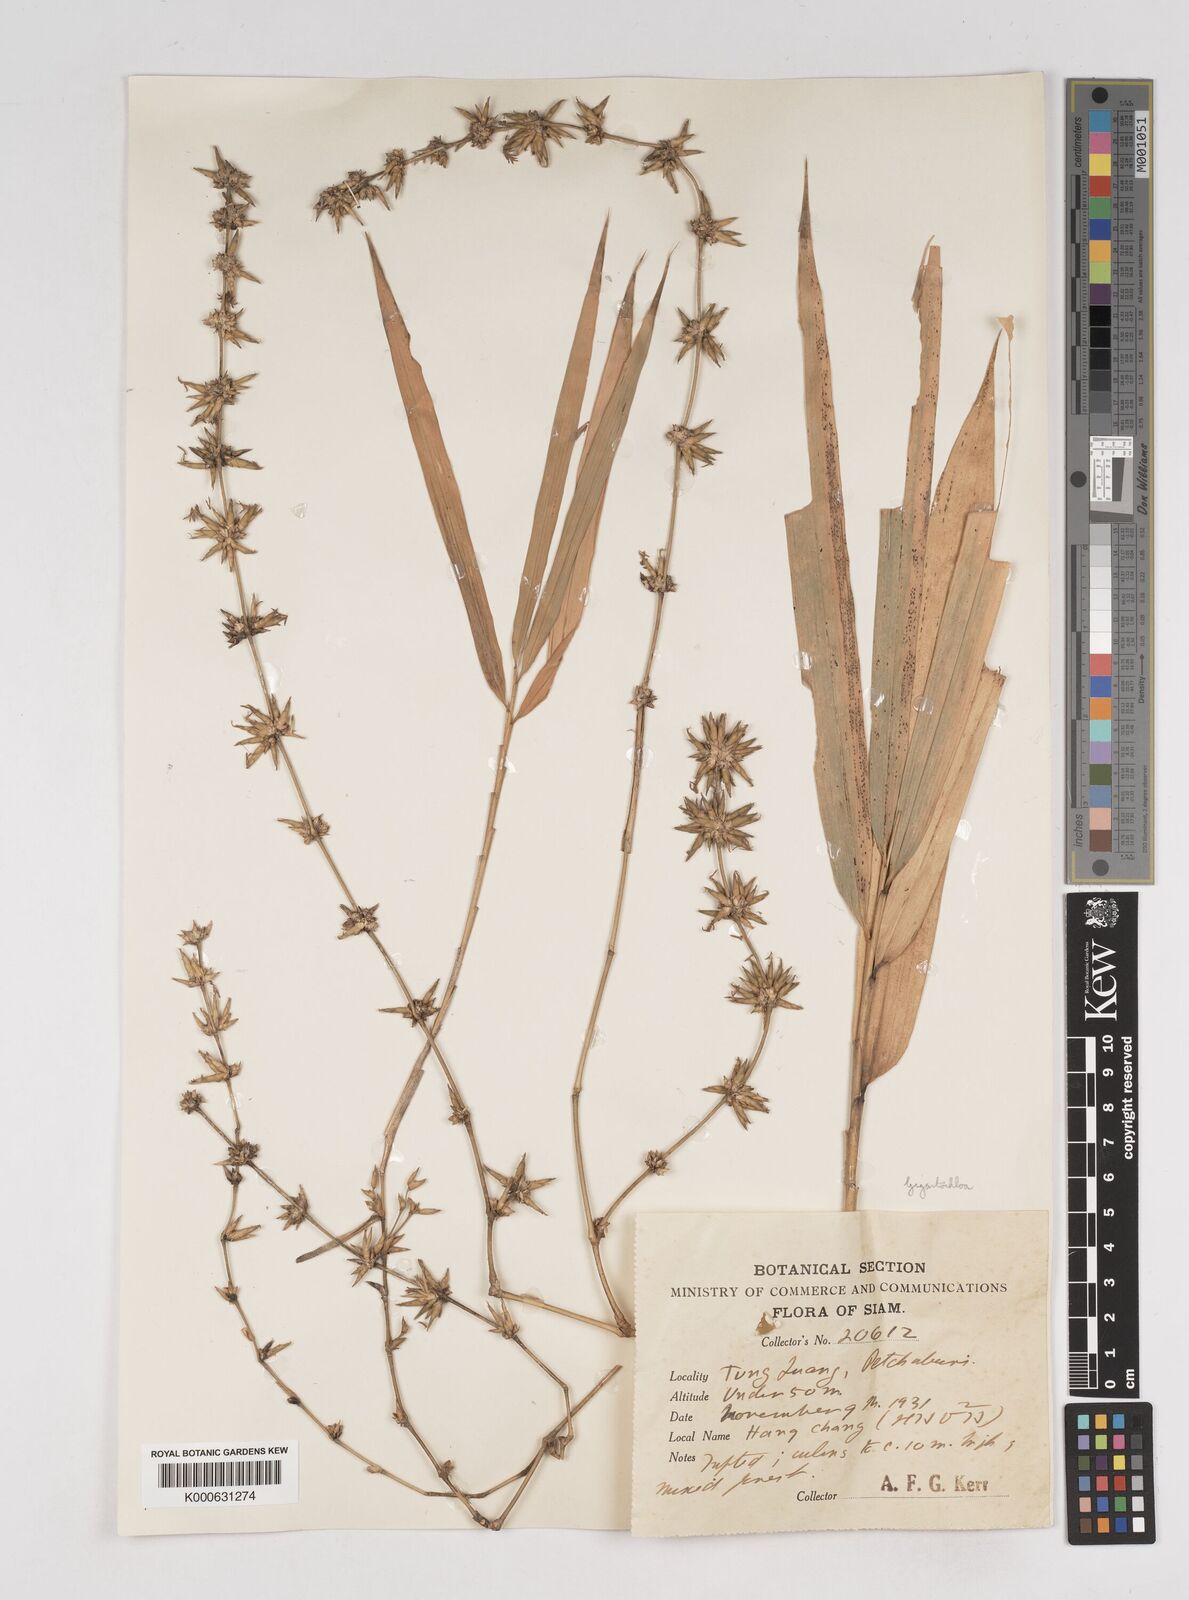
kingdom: Plantae
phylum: Tracheophyta
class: Liliopsida
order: Poales
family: Poaceae
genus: Gigantochloa
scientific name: Gigantochloa
